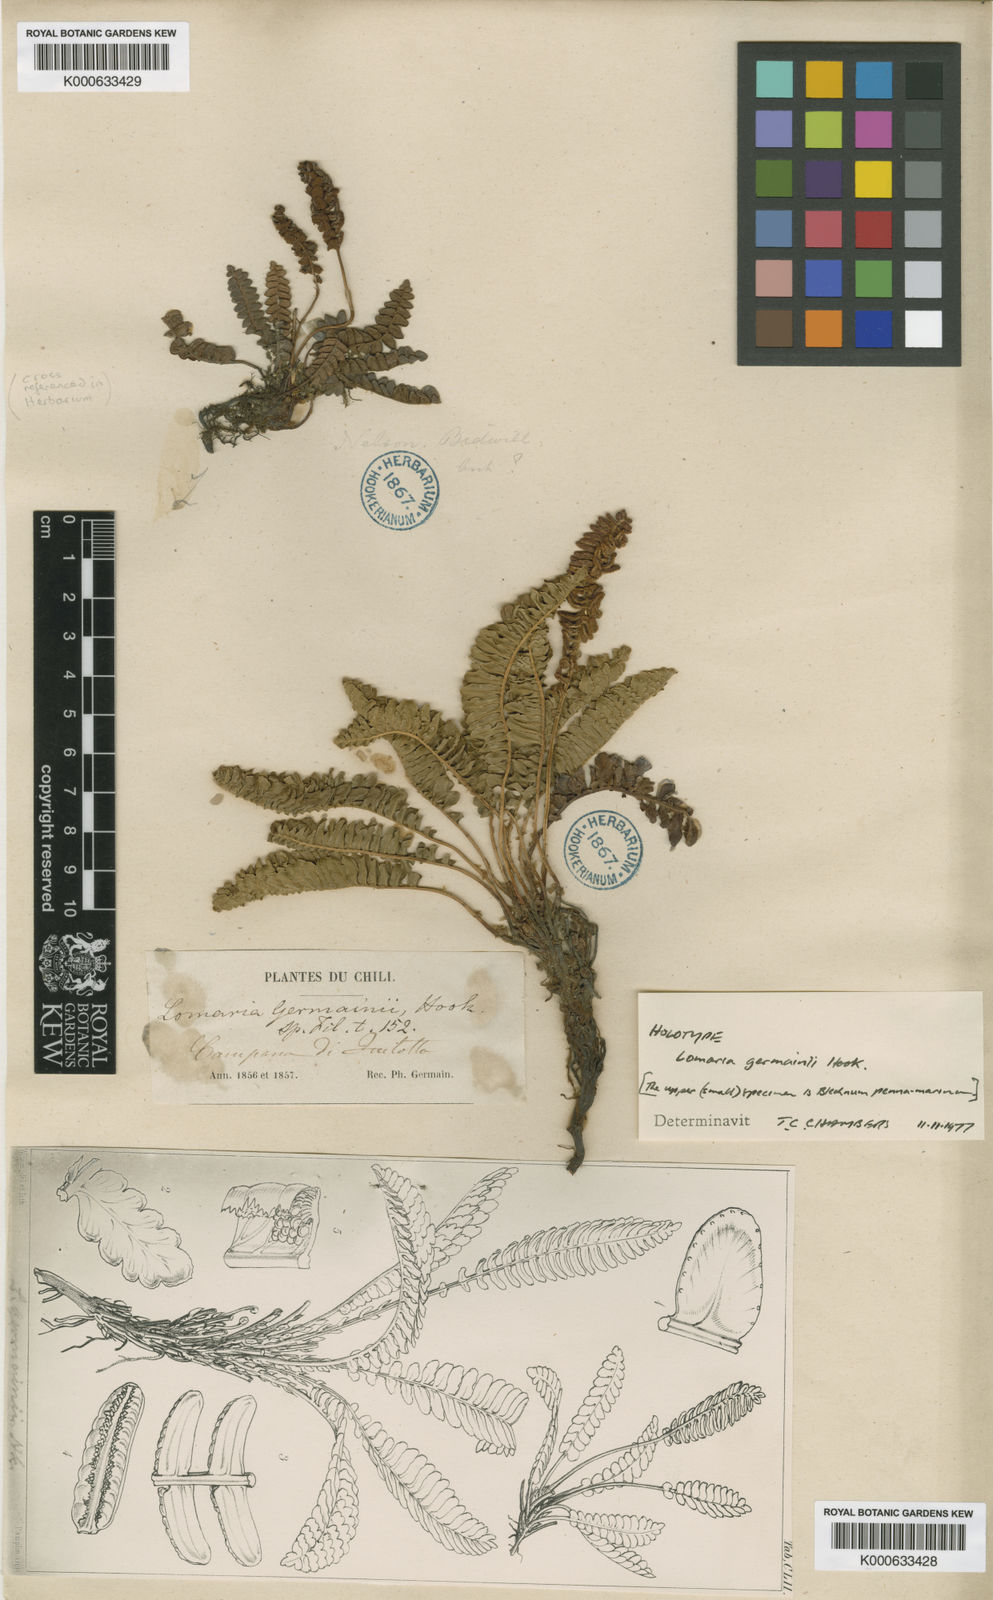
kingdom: Plantae
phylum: Tracheophyta
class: Polypodiopsida
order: Polypodiales
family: Blechnaceae
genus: Austroblechnum
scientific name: Austroblechnum microphyllum
